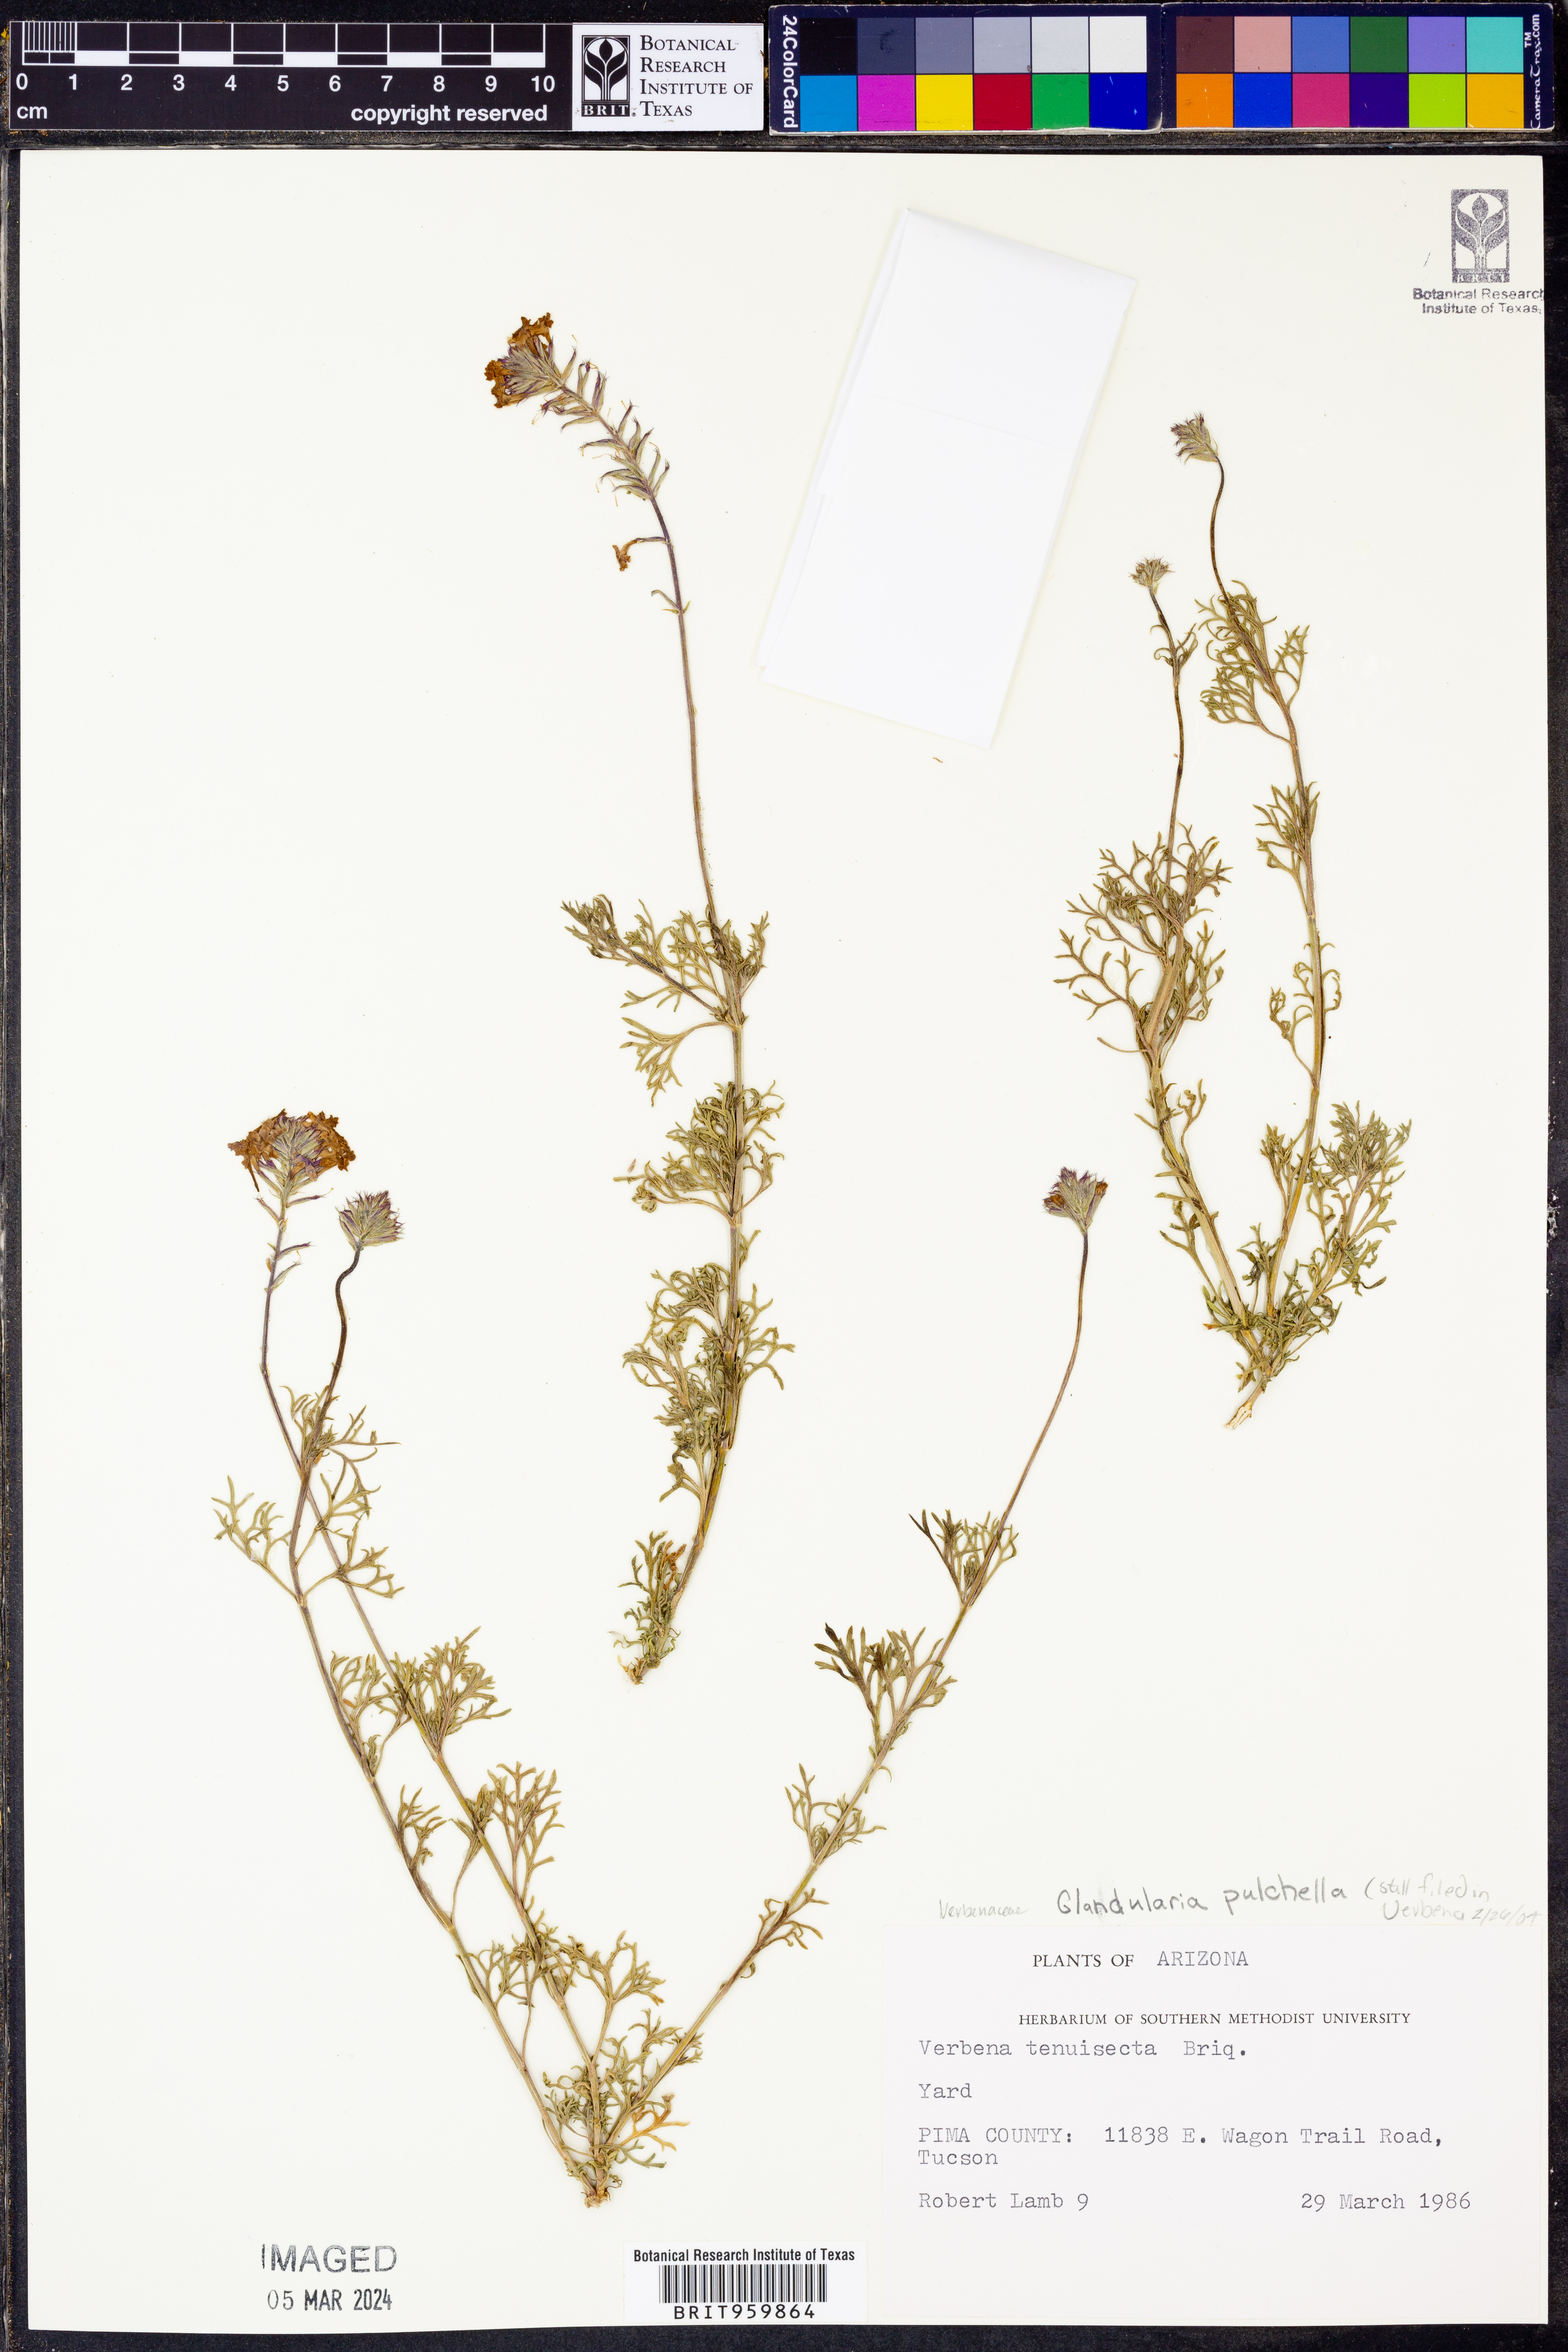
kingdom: Plantae
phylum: Tracheophyta
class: Magnoliopsida
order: Lamiales
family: Verbenaceae
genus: Verbena
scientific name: Verbena tenera
